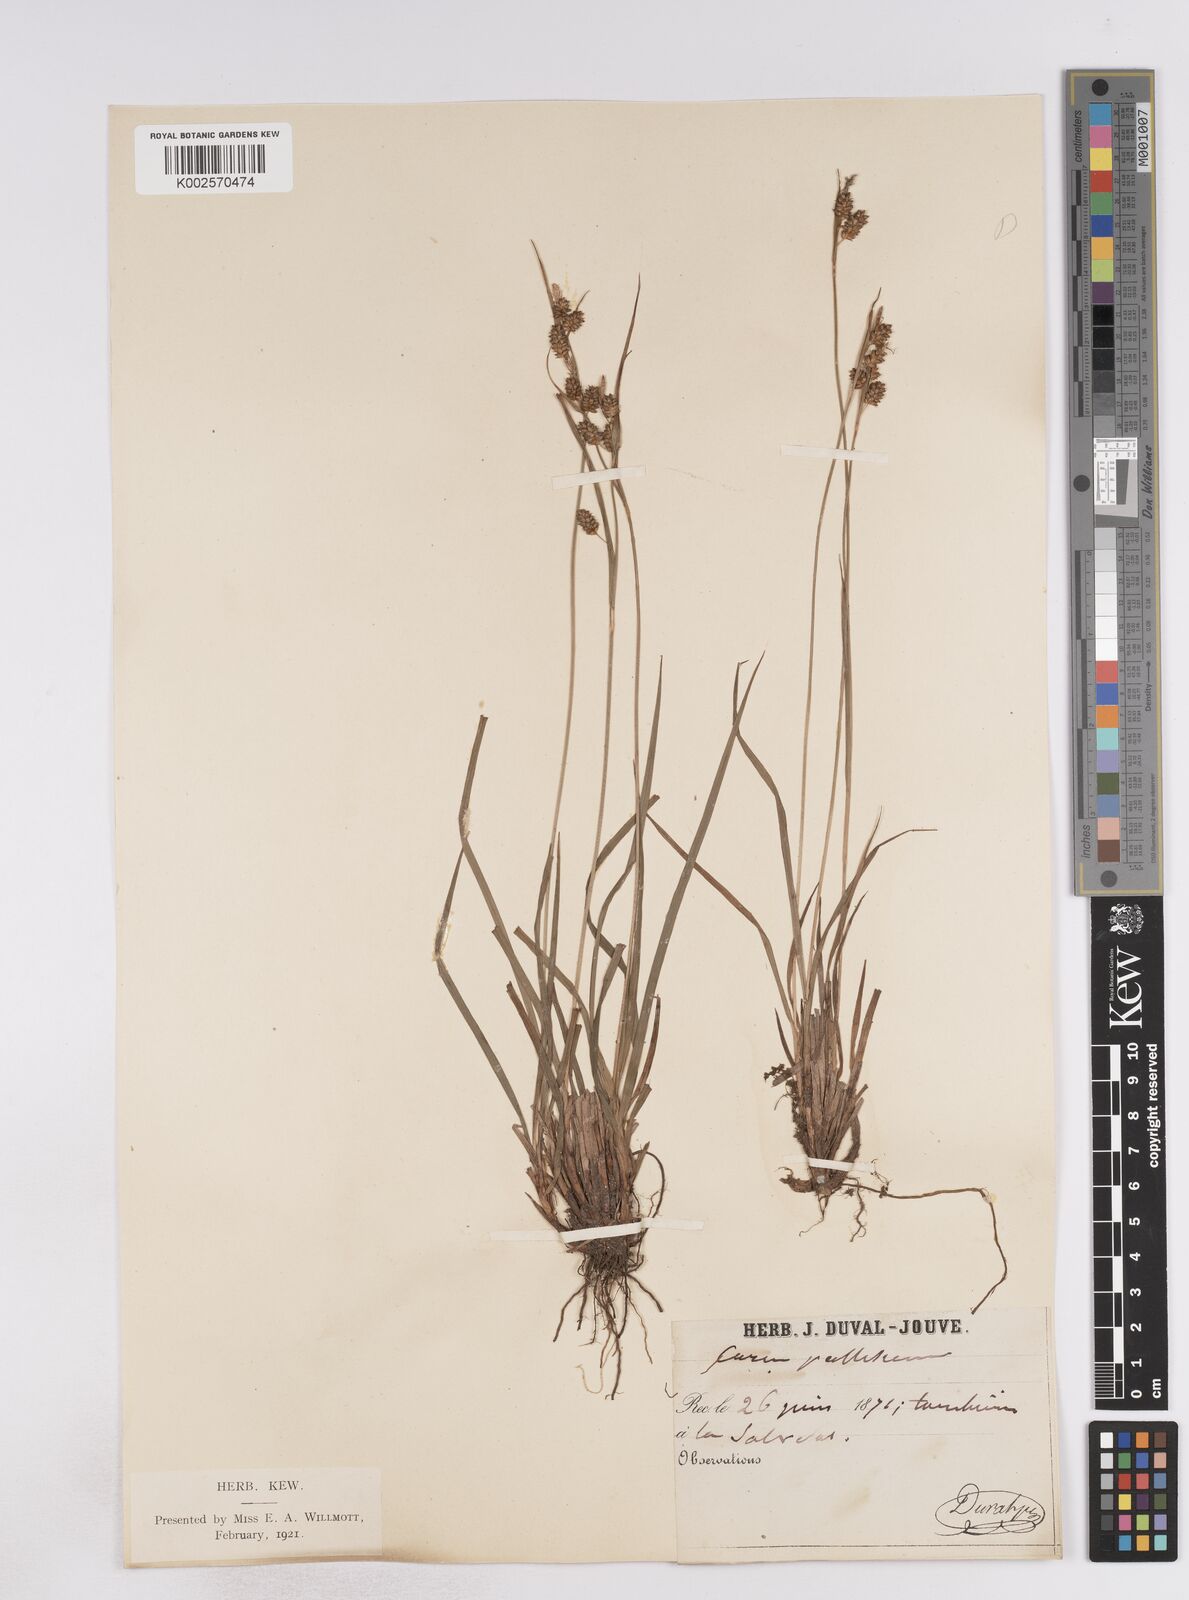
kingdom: Plantae
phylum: Tracheophyta
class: Liliopsida
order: Poales
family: Cyperaceae
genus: Carex
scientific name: Carex pallescens
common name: Pale sedge
